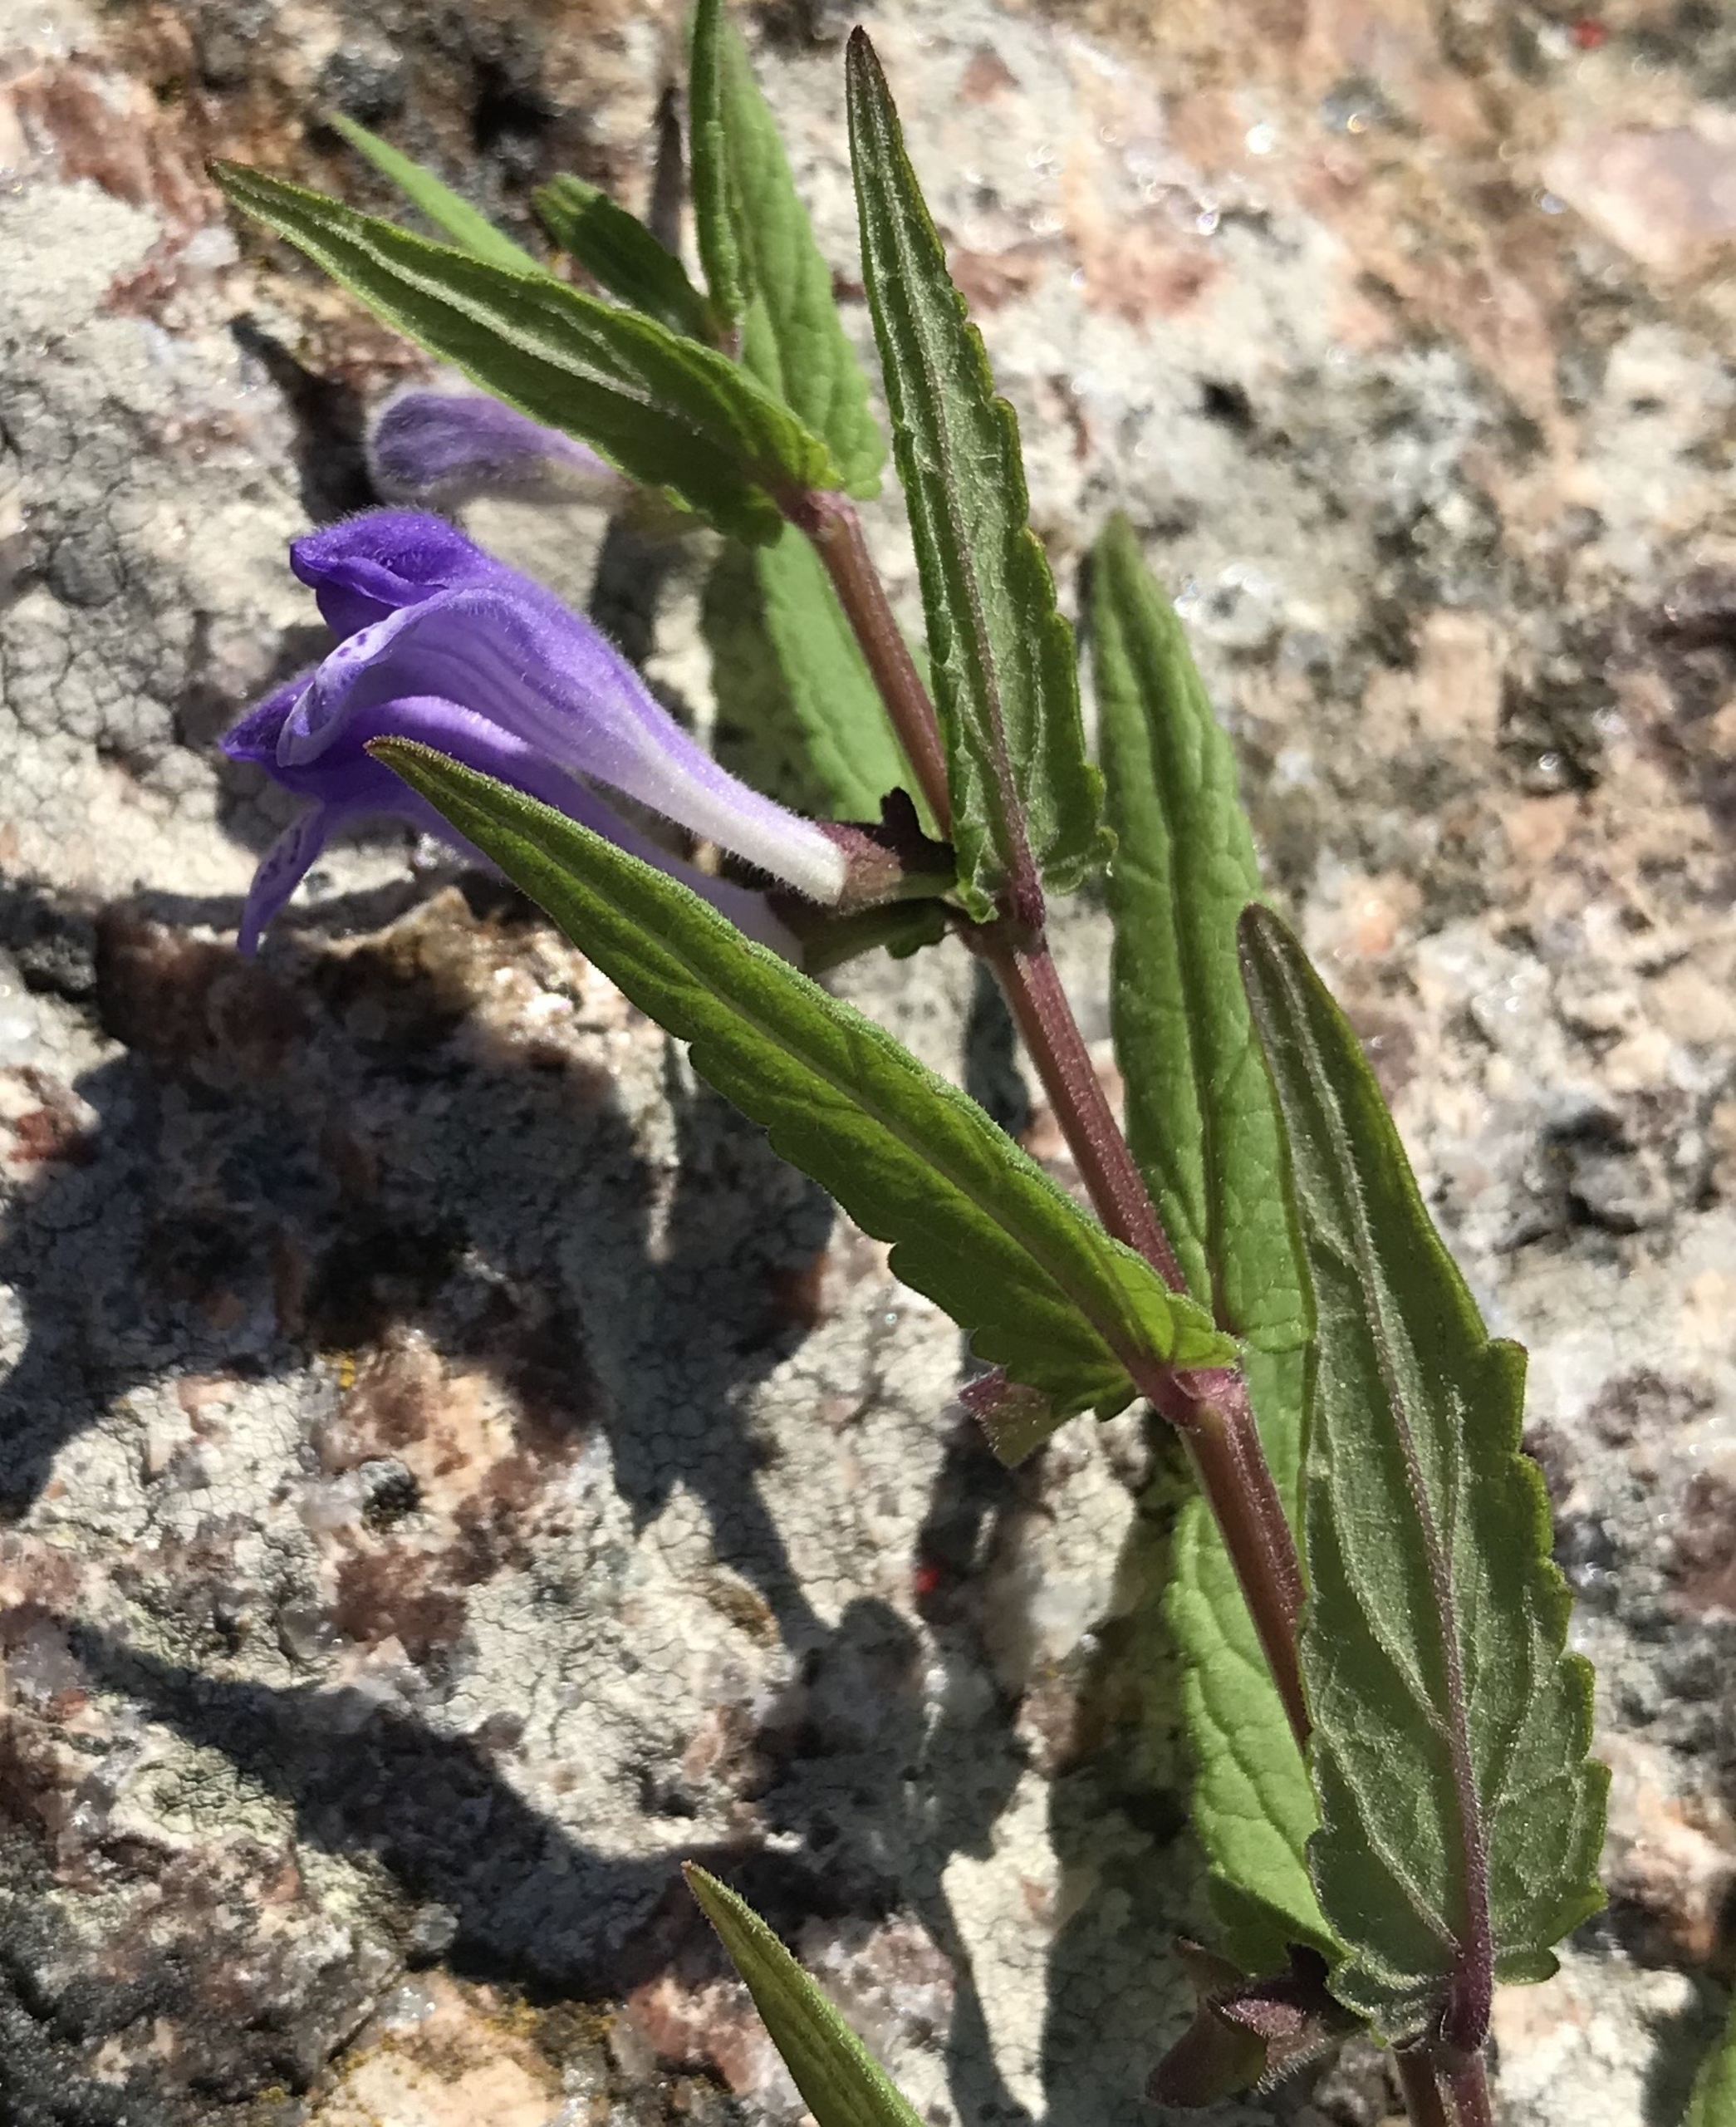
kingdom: Plantae
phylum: Tracheophyta
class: Magnoliopsida
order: Lamiales
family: Lamiaceae
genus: Scutellaria
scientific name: Scutellaria galericulata
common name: Almindelig skjolddrager
